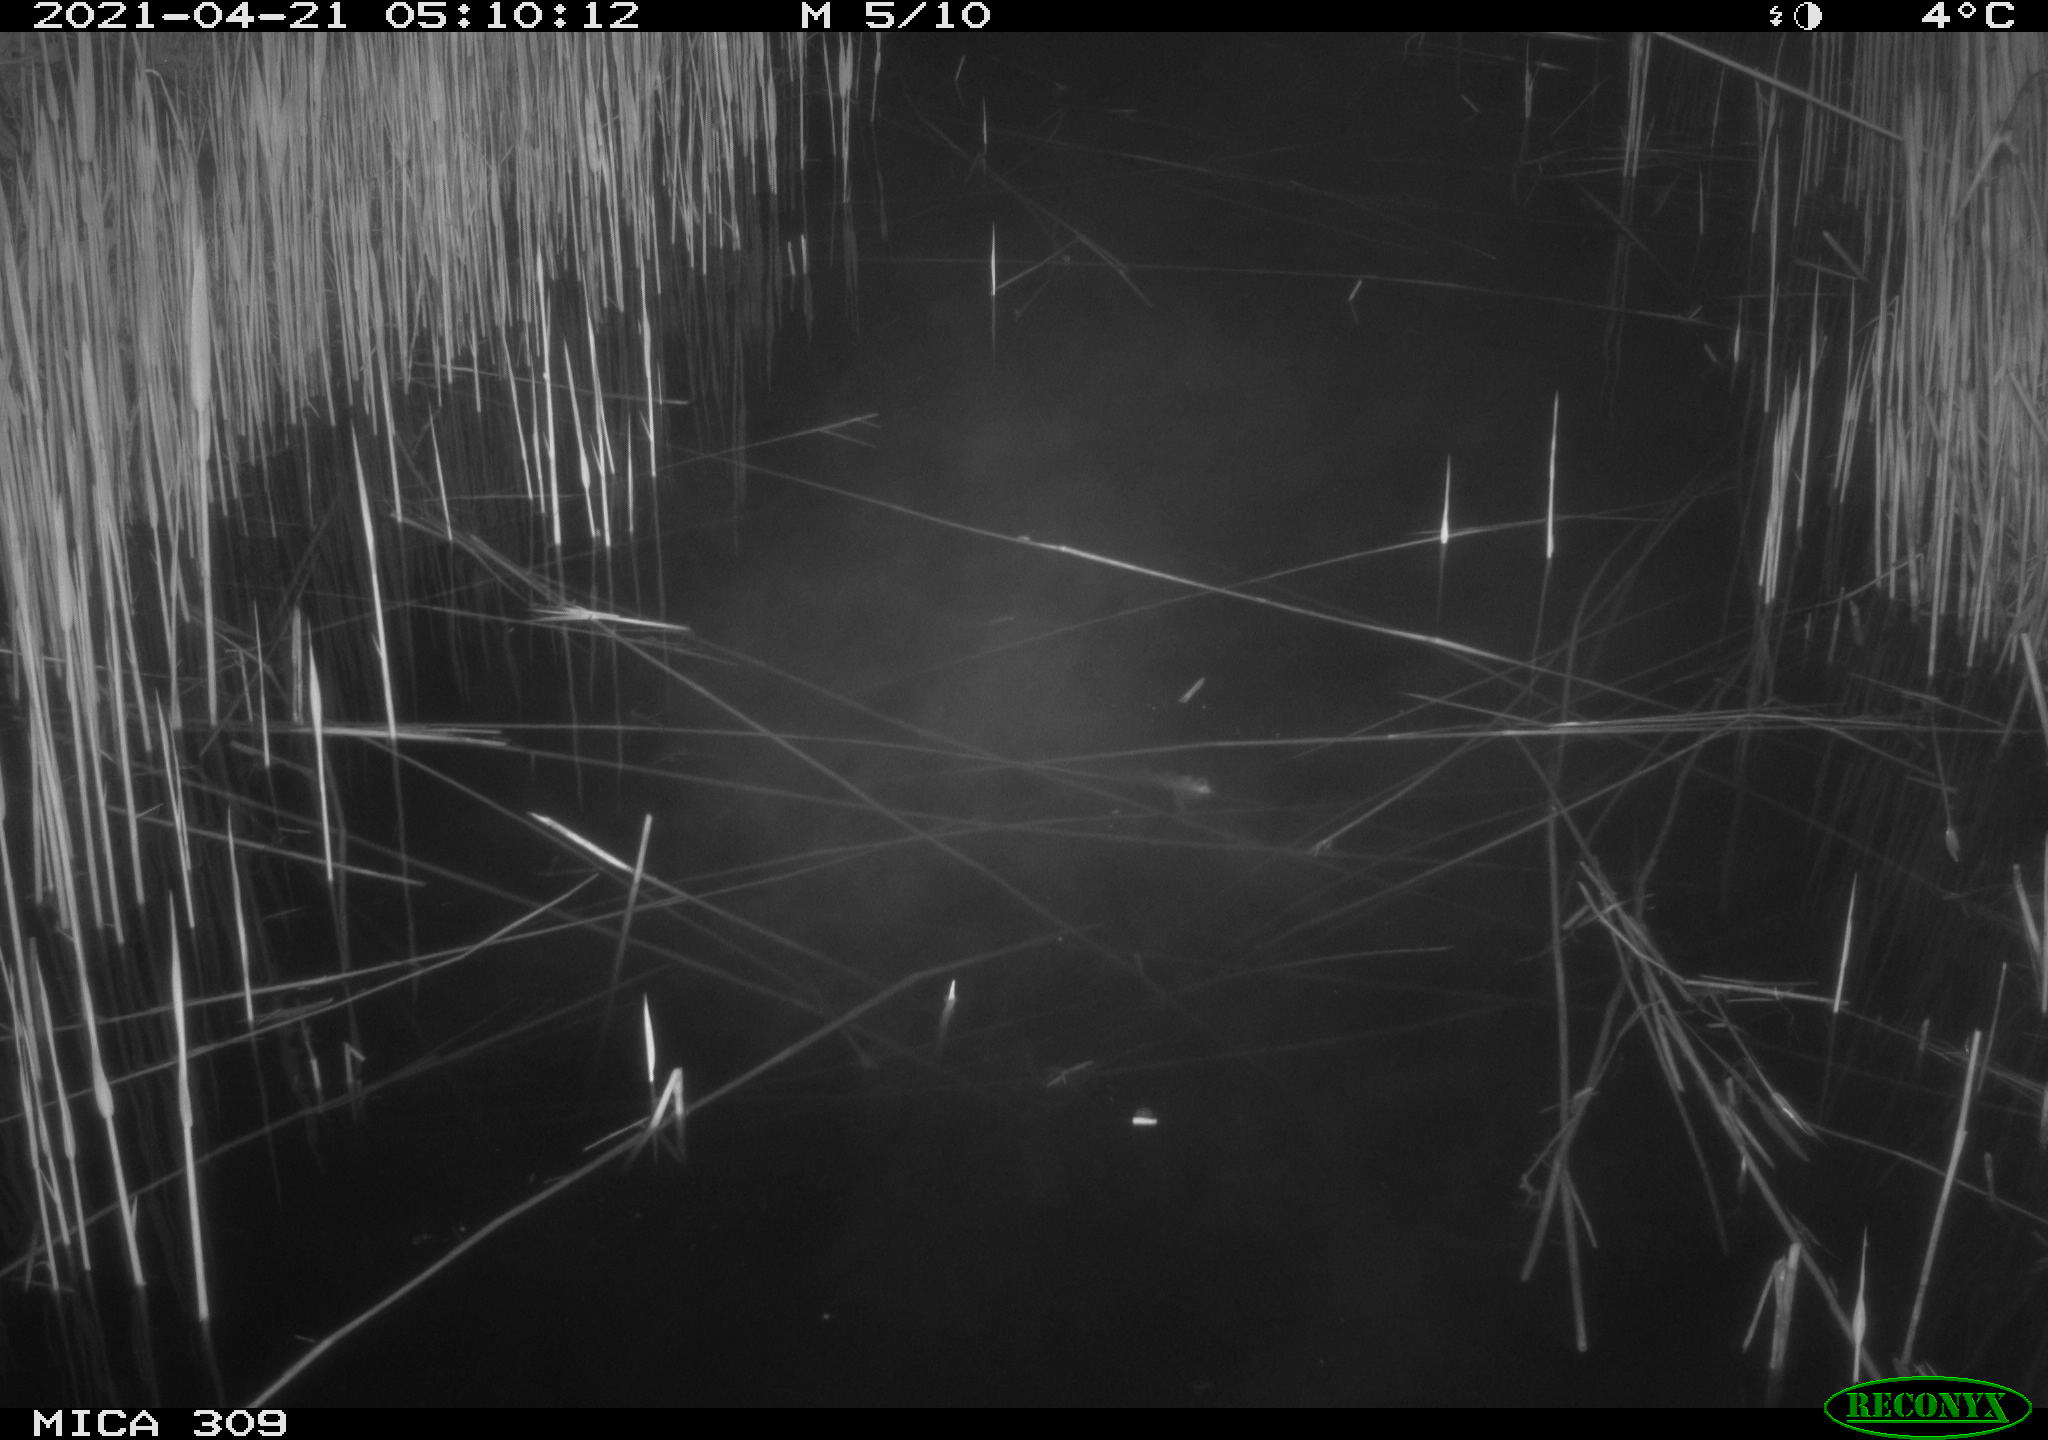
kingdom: Animalia
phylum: Chordata
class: Aves
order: Anseriformes
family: Anatidae
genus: Anas
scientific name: Anas platyrhynchos
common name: Mallard
